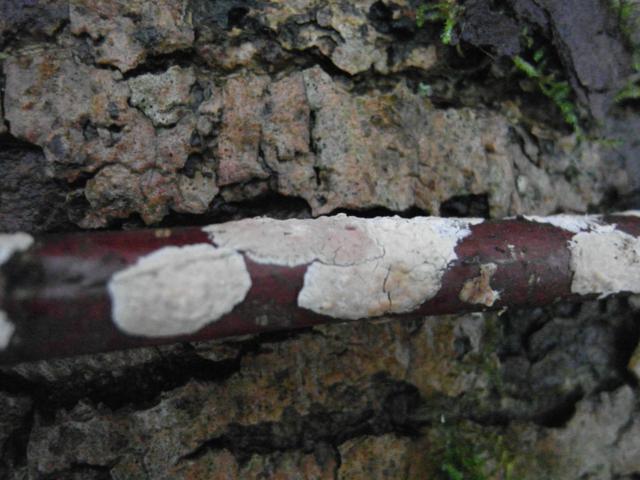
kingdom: Fungi
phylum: Basidiomycota
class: Agaricomycetes
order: Agaricales
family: Physalacriaceae
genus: Cylindrobasidium
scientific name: Cylindrobasidium evolvens
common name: sprækkehinde
